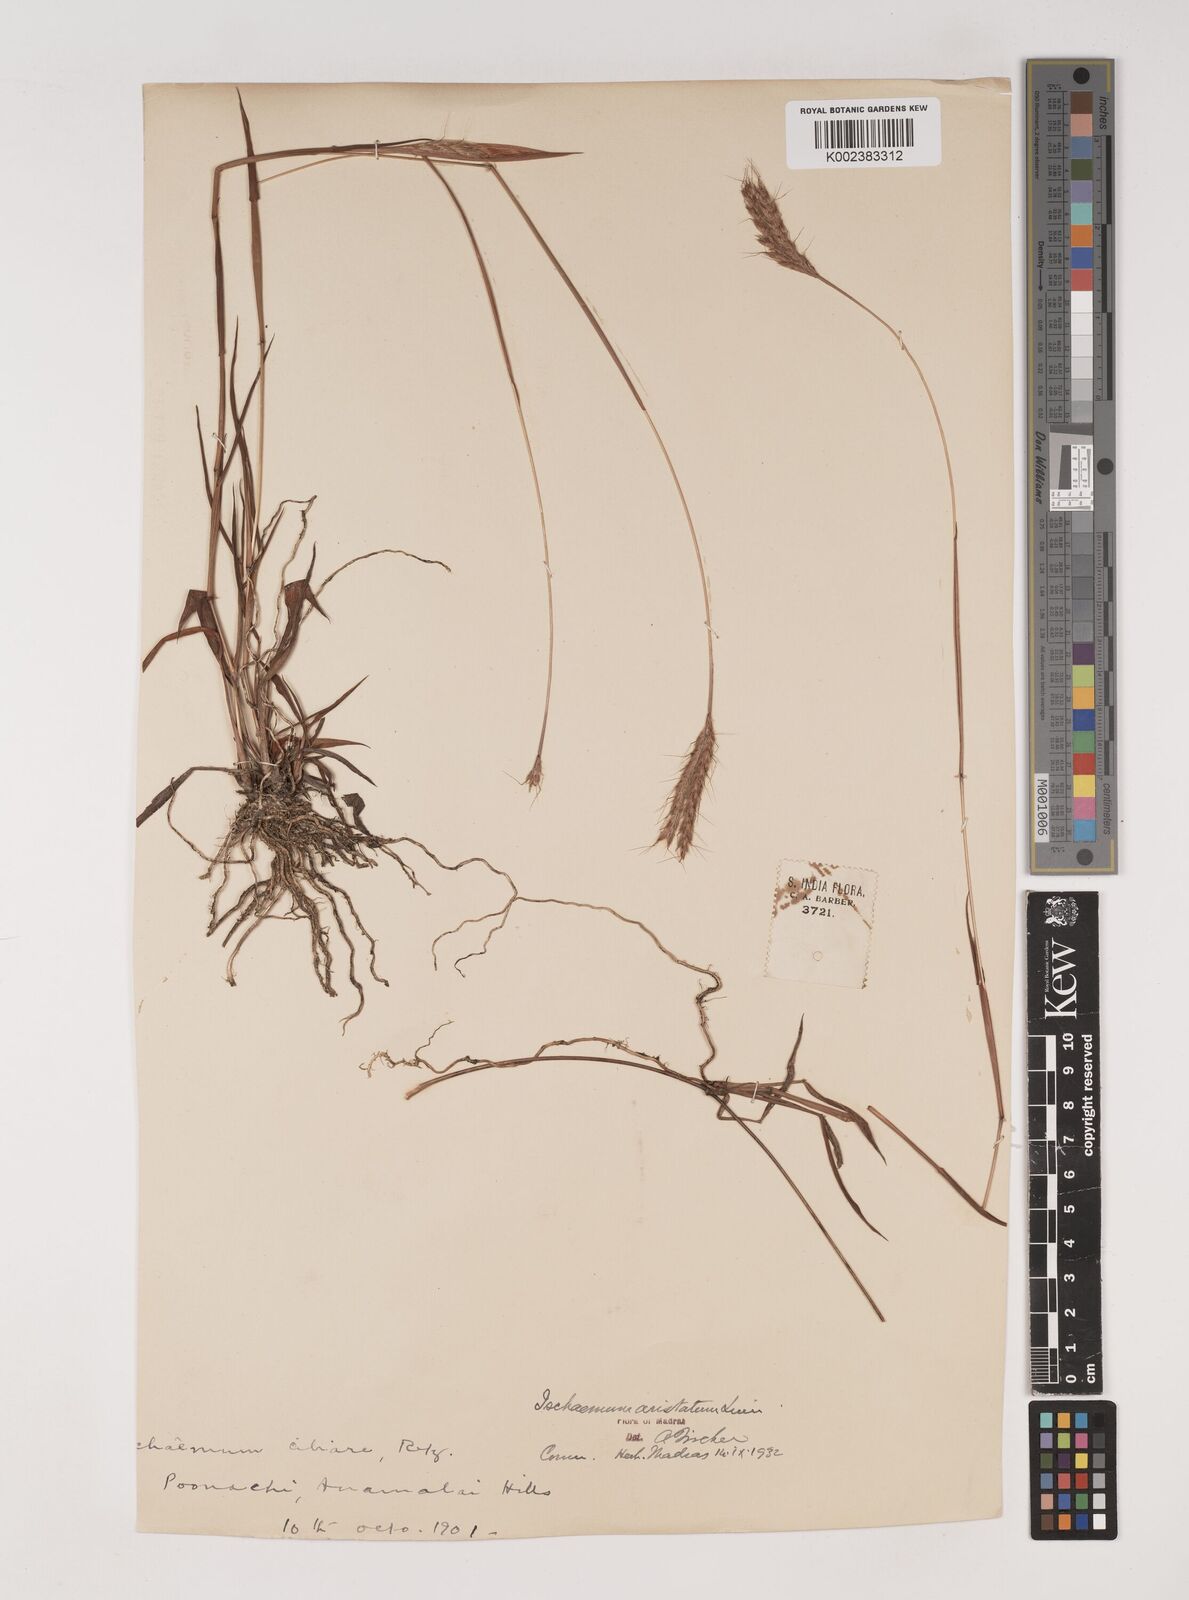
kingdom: Plantae
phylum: Tracheophyta
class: Liliopsida
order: Poales
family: Poaceae
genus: Polytrias
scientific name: Polytrias indica
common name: Indian murainagrass
